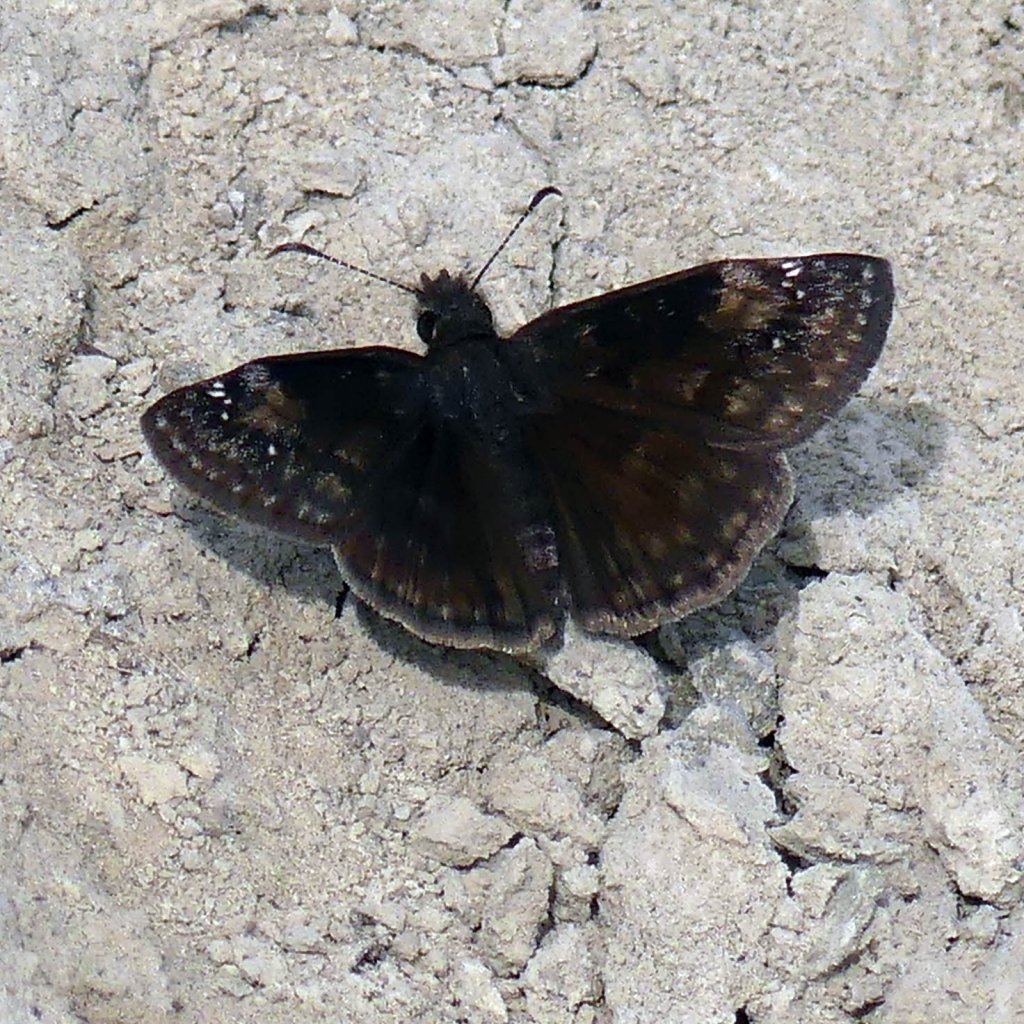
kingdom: Animalia
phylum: Arthropoda
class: Insecta
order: Lepidoptera
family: Hesperiidae
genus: Gesta
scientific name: Gesta
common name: Wild Indigo Duskywing
